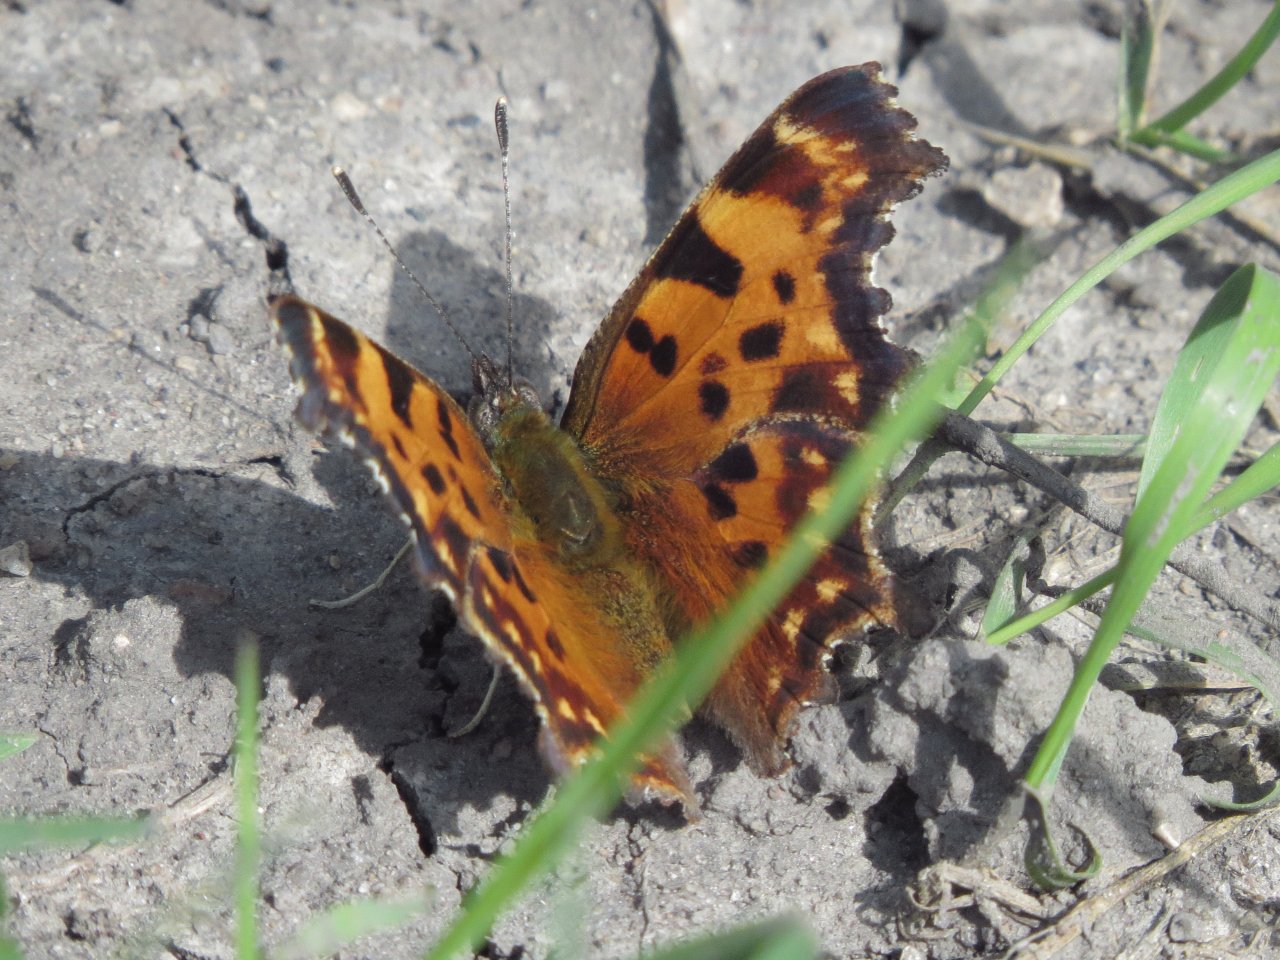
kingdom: Animalia
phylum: Arthropoda
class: Insecta
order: Lepidoptera
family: Nymphalidae
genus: Polygonia
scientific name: Polygonia faunus
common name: Green Comma
